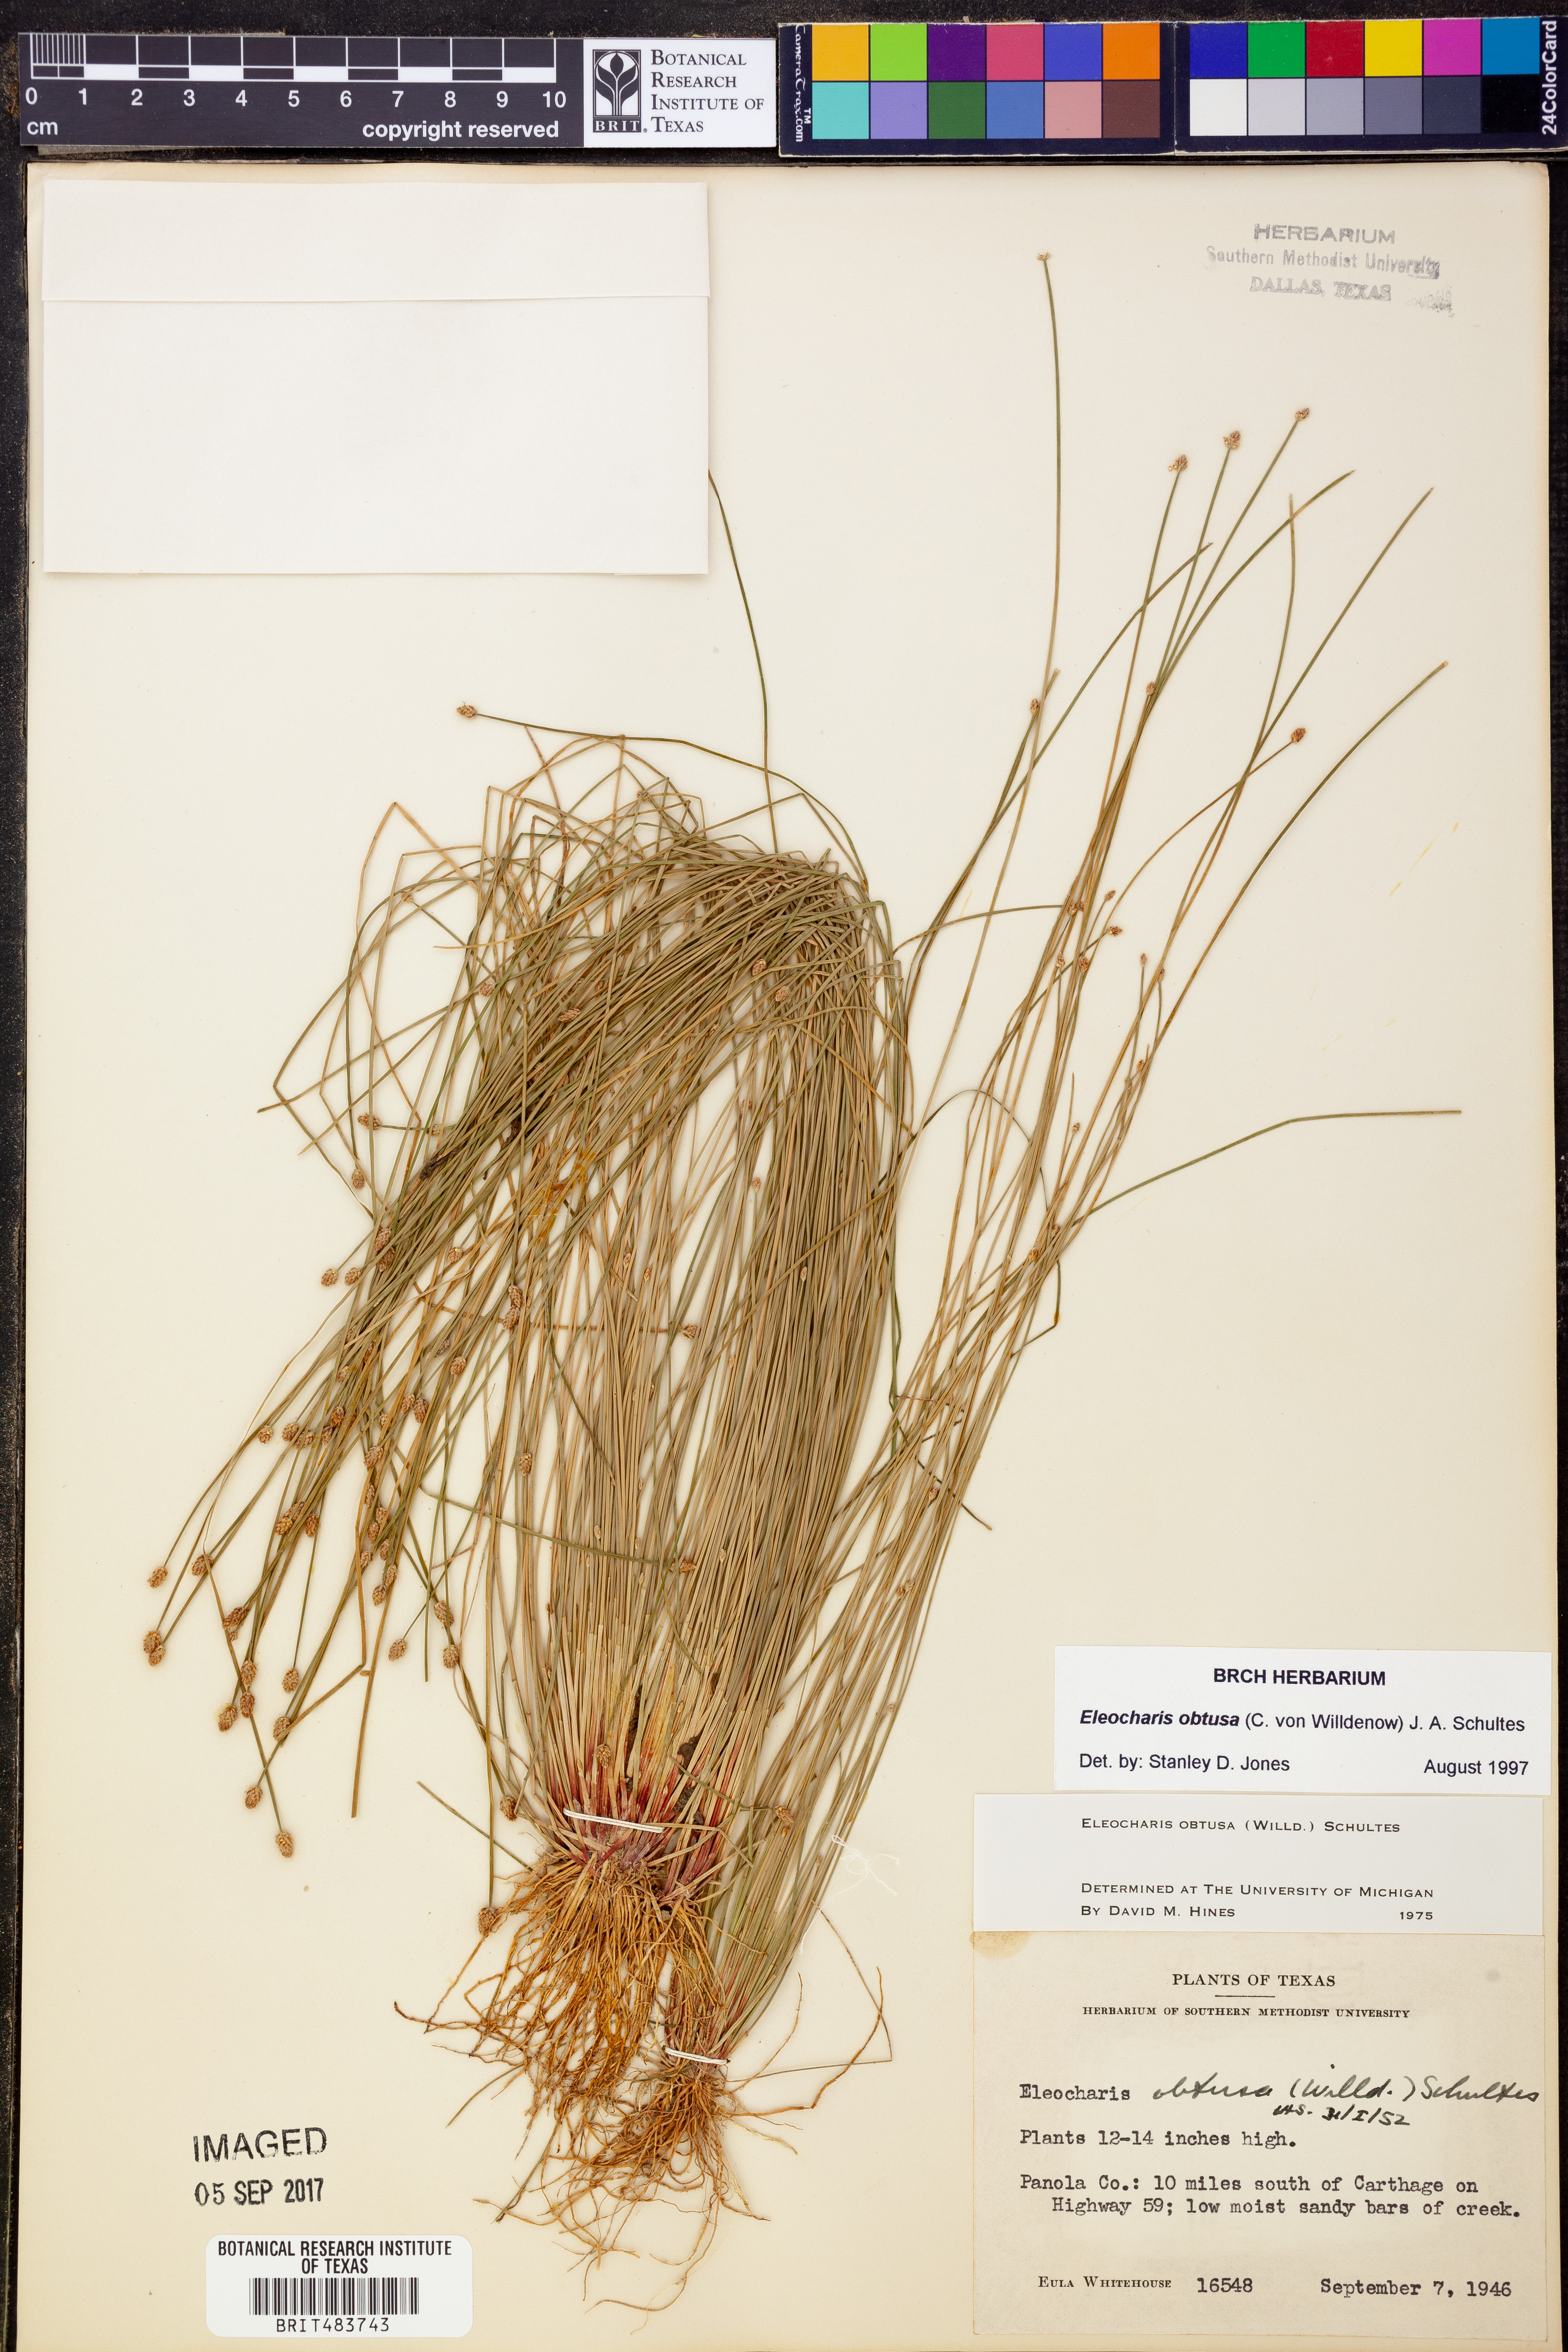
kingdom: Plantae
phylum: Tracheophyta
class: Liliopsida
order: Poales
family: Cyperaceae
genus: Eleocharis
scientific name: Eleocharis obtusa
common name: Blunt spikerush
